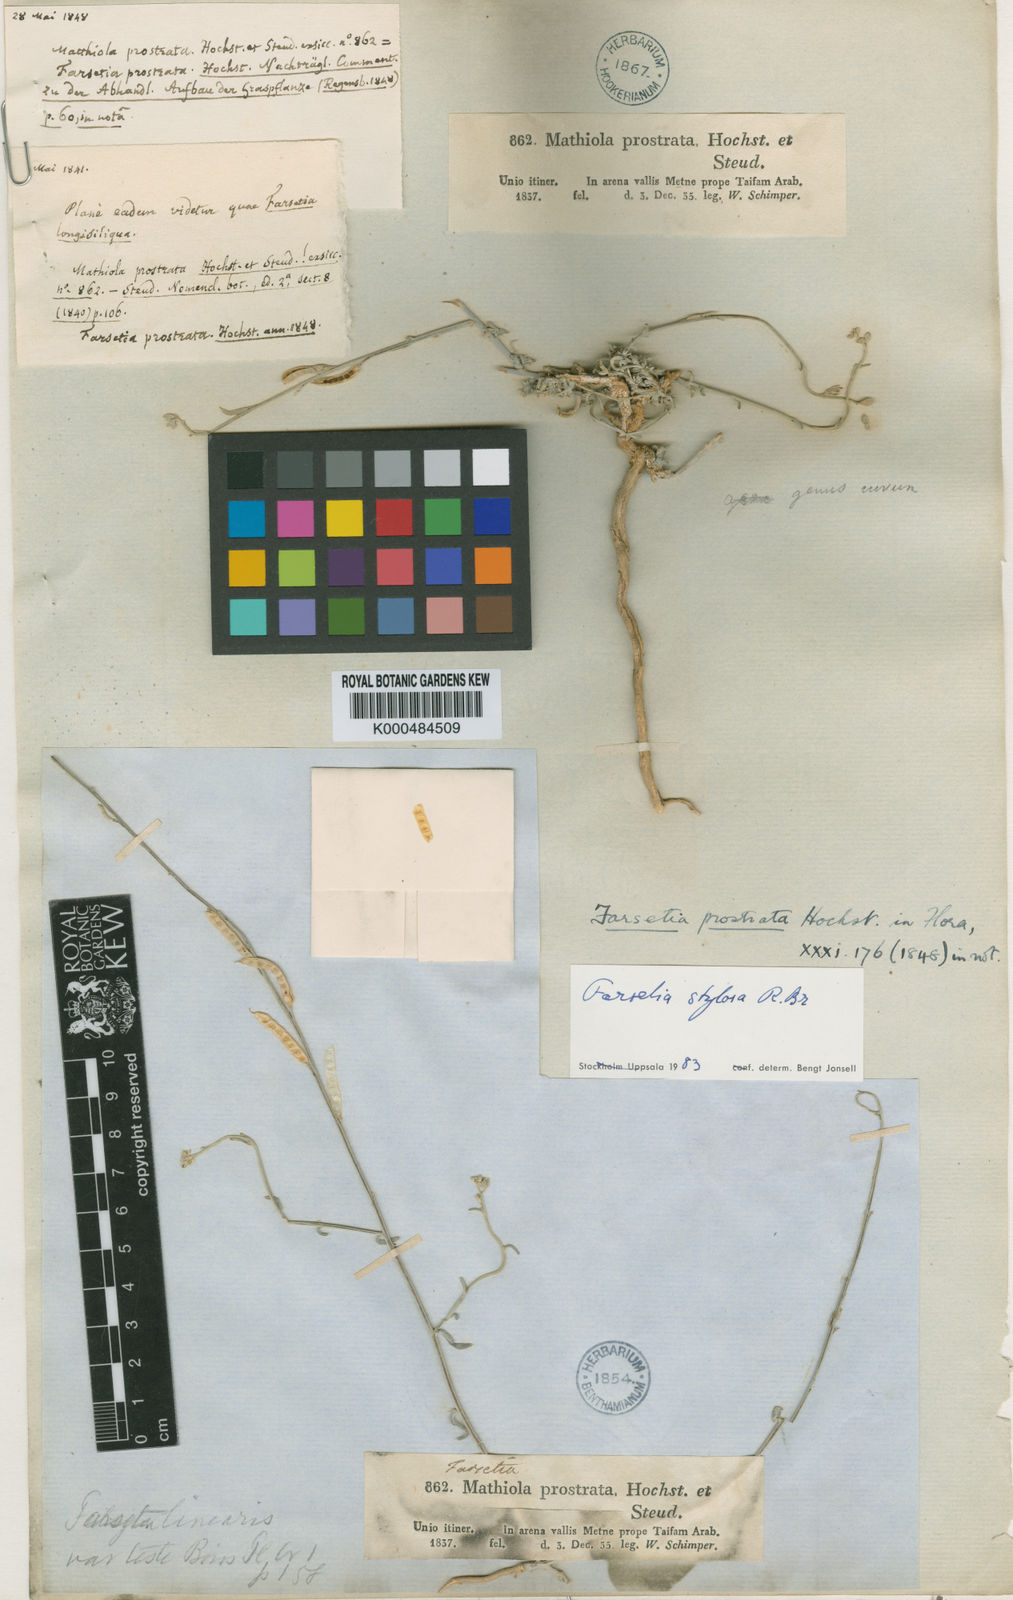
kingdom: Plantae
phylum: Tracheophyta
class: Magnoliopsida
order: Brassicales
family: Brassicaceae
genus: Farsetia
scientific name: Farsetia stylosa
